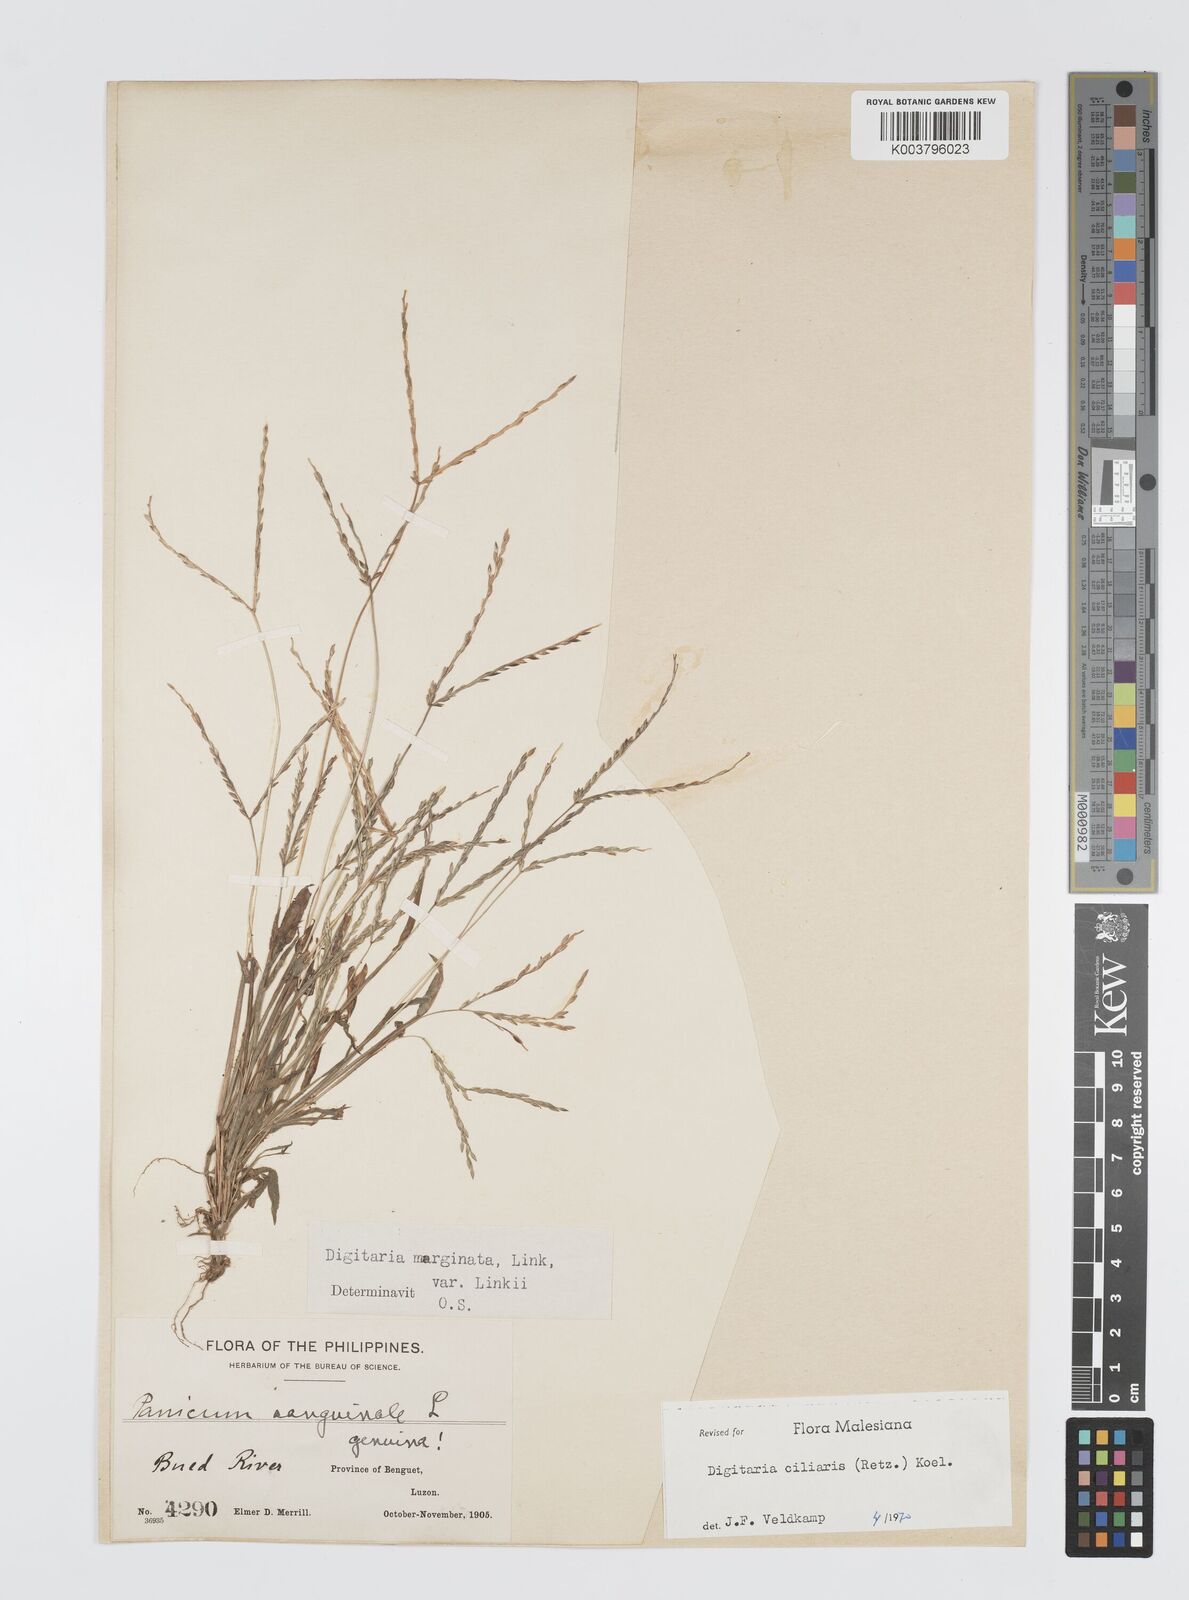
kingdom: Plantae
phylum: Tracheophyta
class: Liliopsida
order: Poales
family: Poaceae
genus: Digitaria
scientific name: Digitaria ciliaris
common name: Tropical finger-grass
